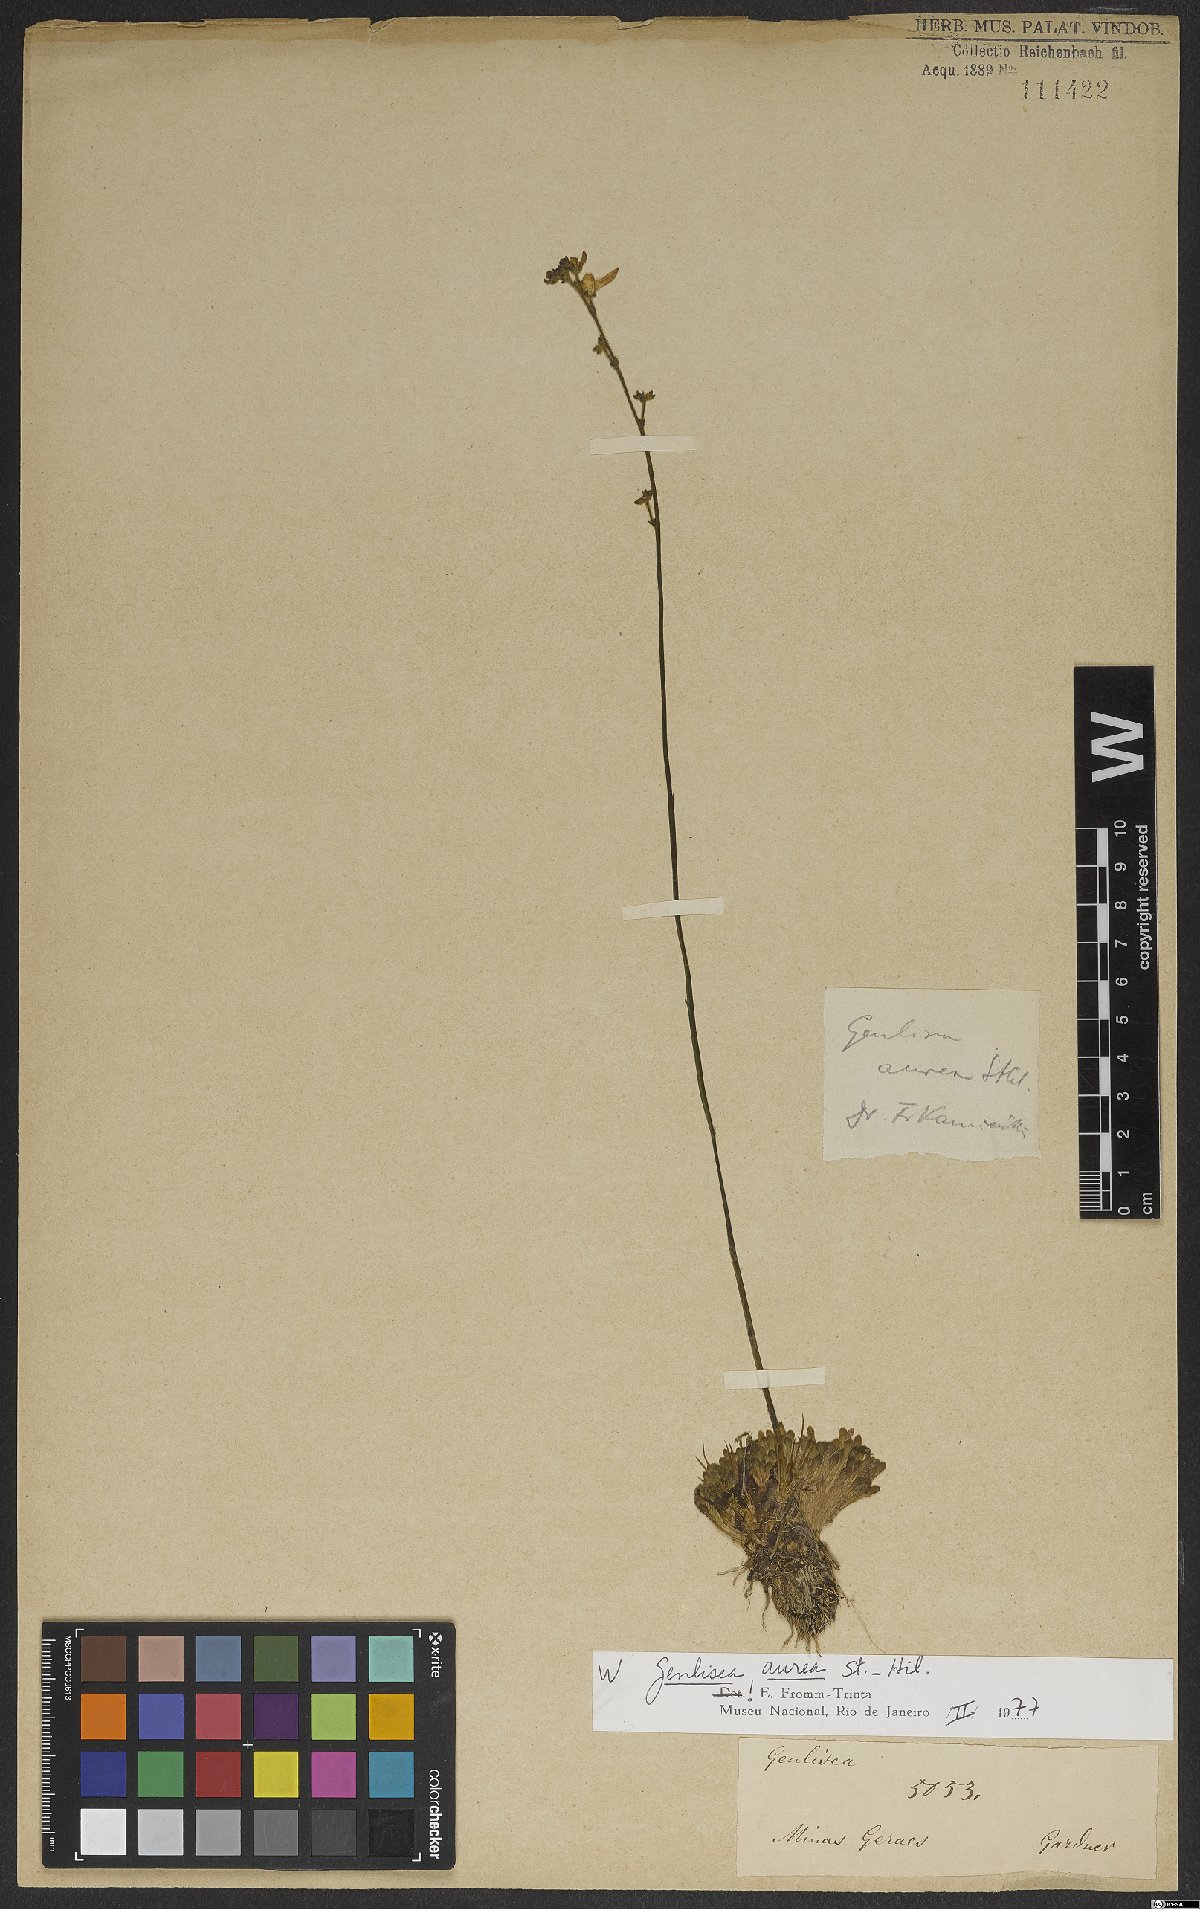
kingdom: Plantae
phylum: Tracheophyta
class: Magnoliopsida
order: Lamiales
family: Lentibulariaceae
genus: Genlisea
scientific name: Genlisea aurea
